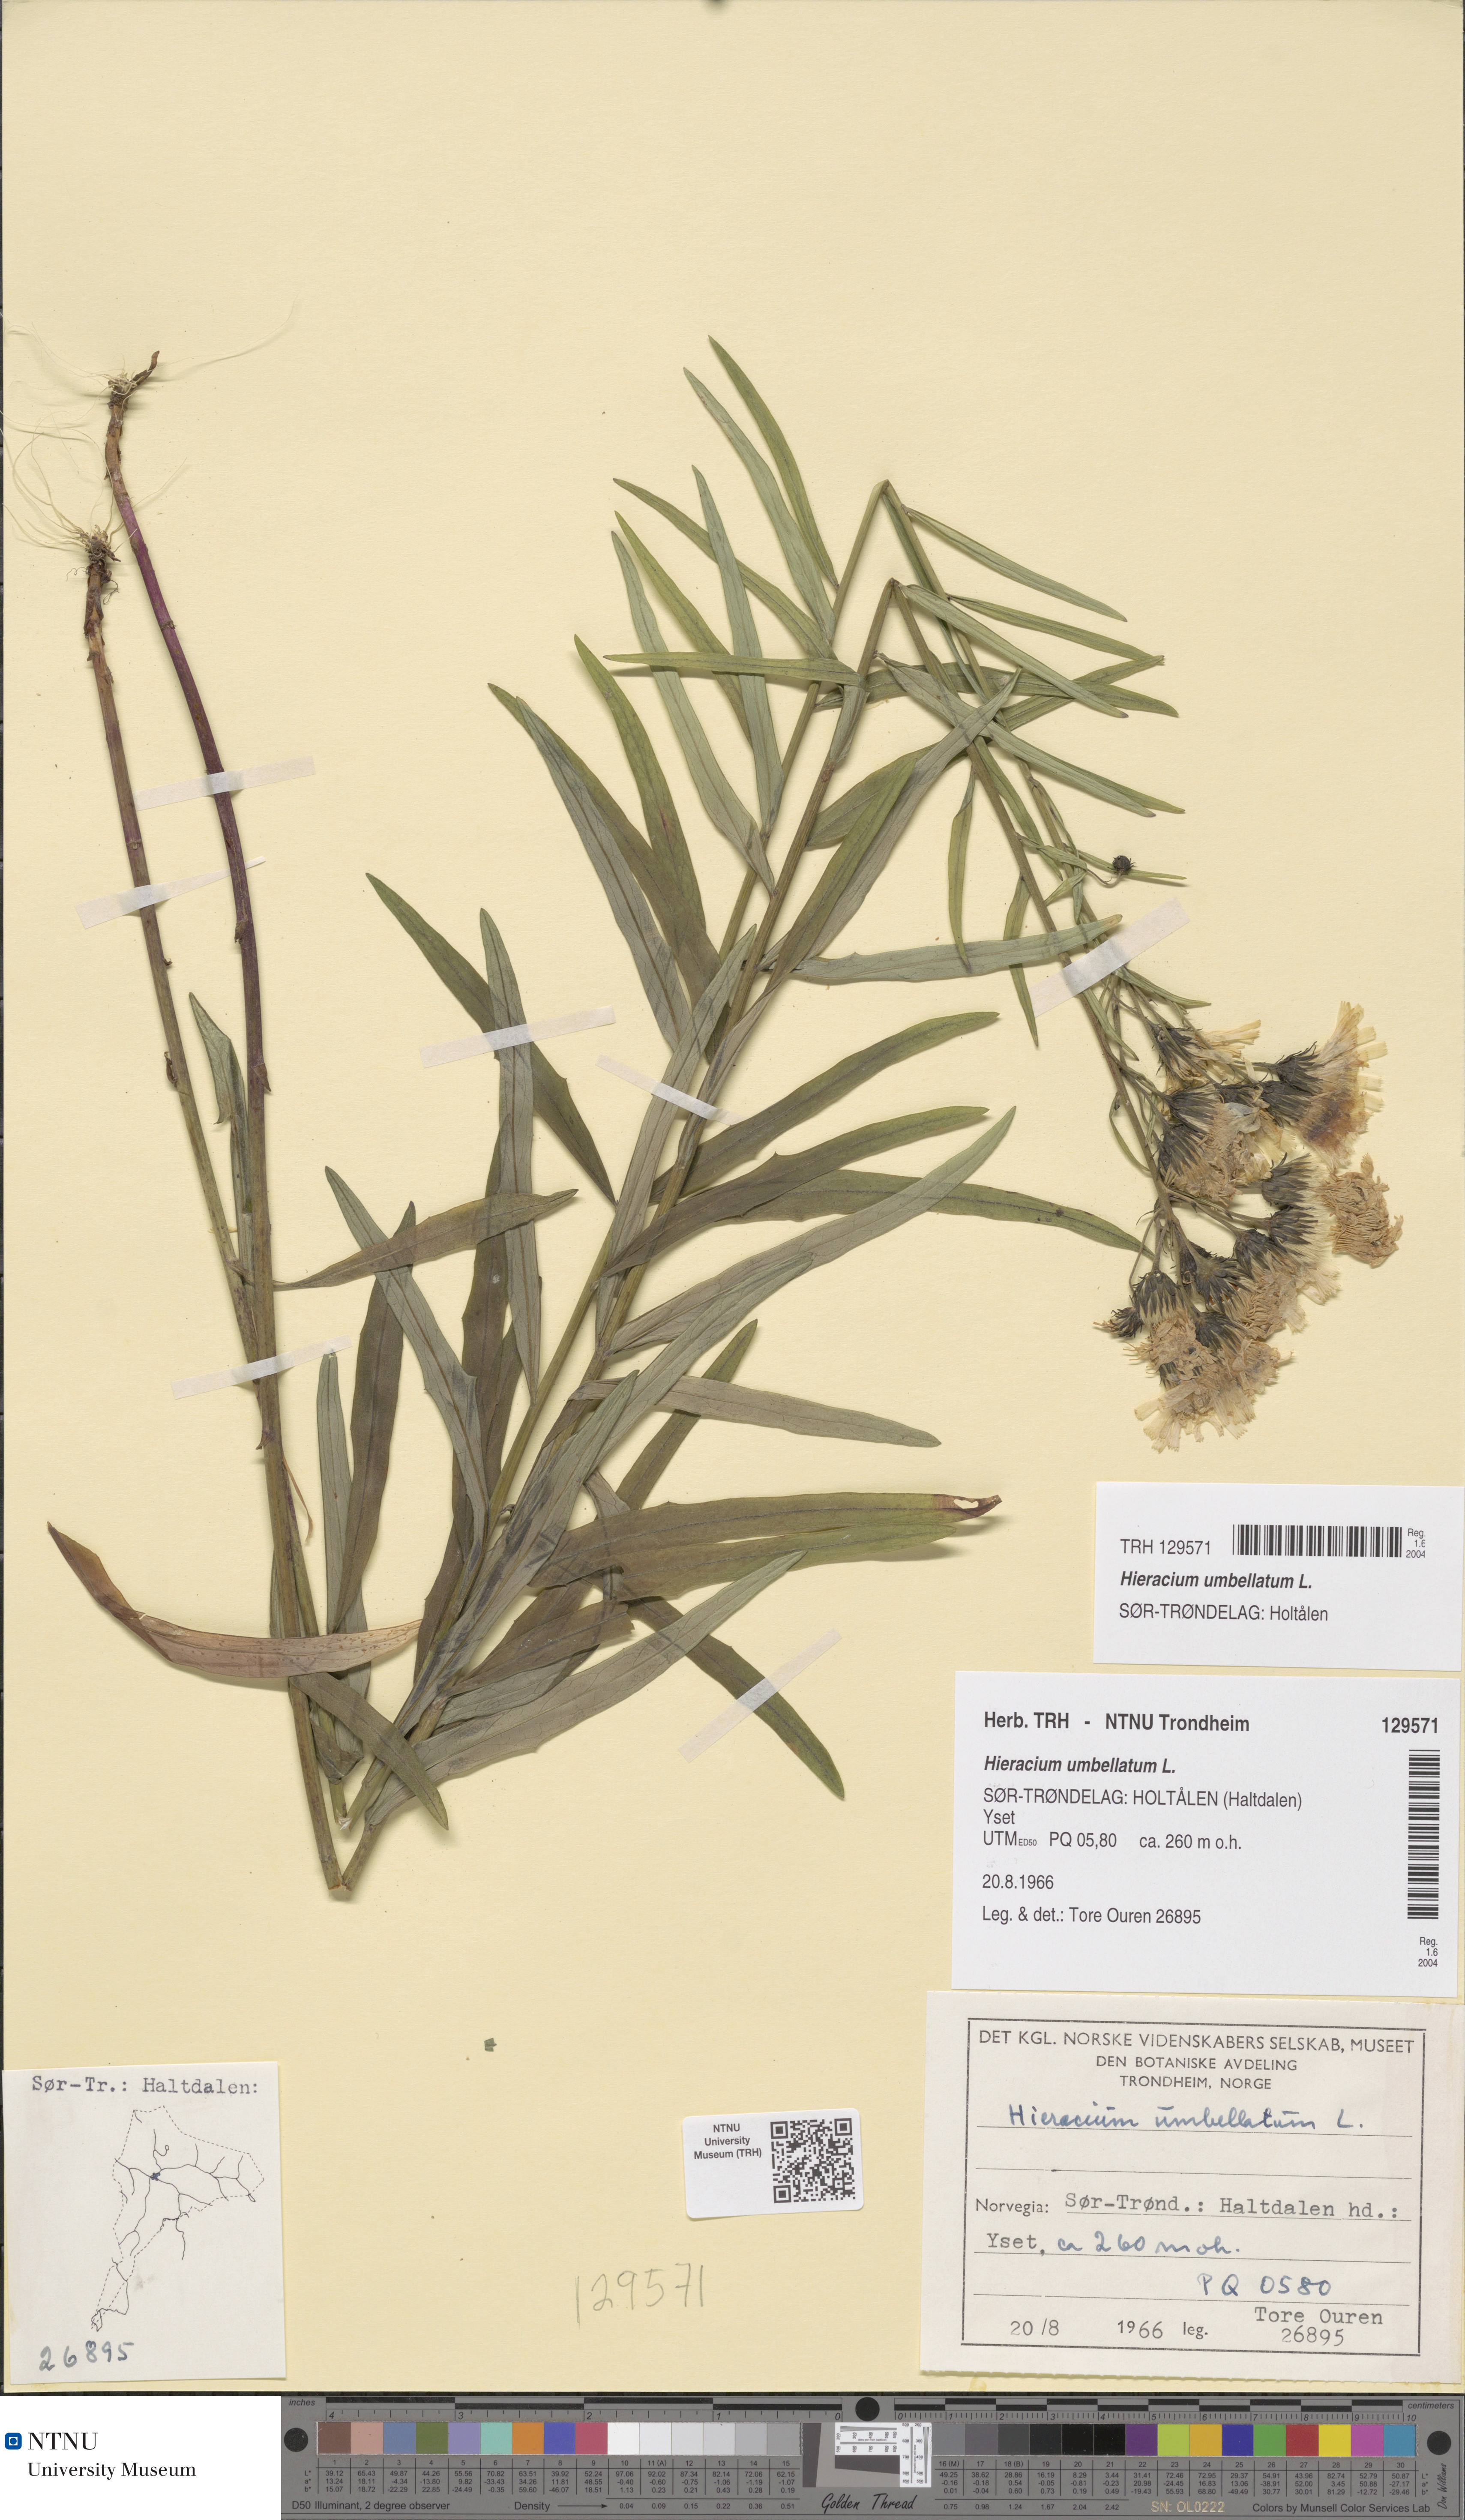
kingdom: Plantae
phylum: Tracheophyta
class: Magnoliopsida
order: Asterales
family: Asteraceae
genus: Hieracium
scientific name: Hieracium umbellatum
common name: Northern hawkweed
